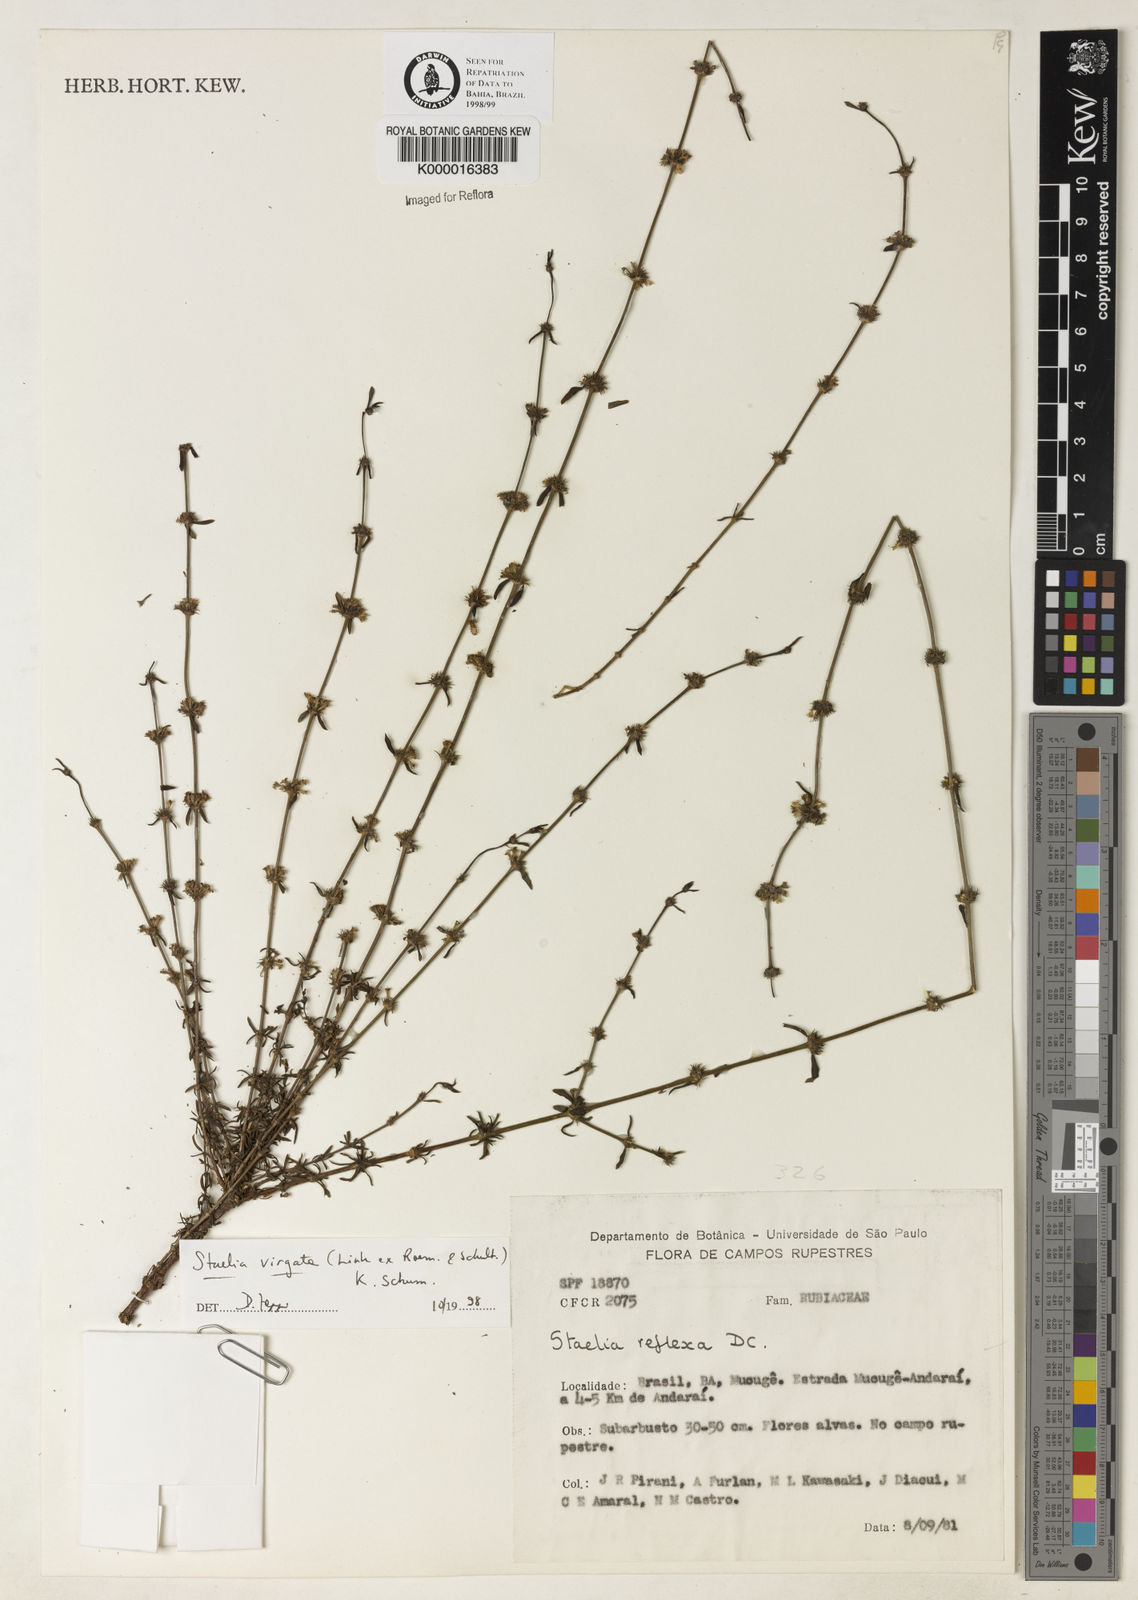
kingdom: Plantae
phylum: Tracheophyta
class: Magnoliopsida
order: Gentianales
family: Rubiaceae
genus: Staelia
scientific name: Staelia virgata
